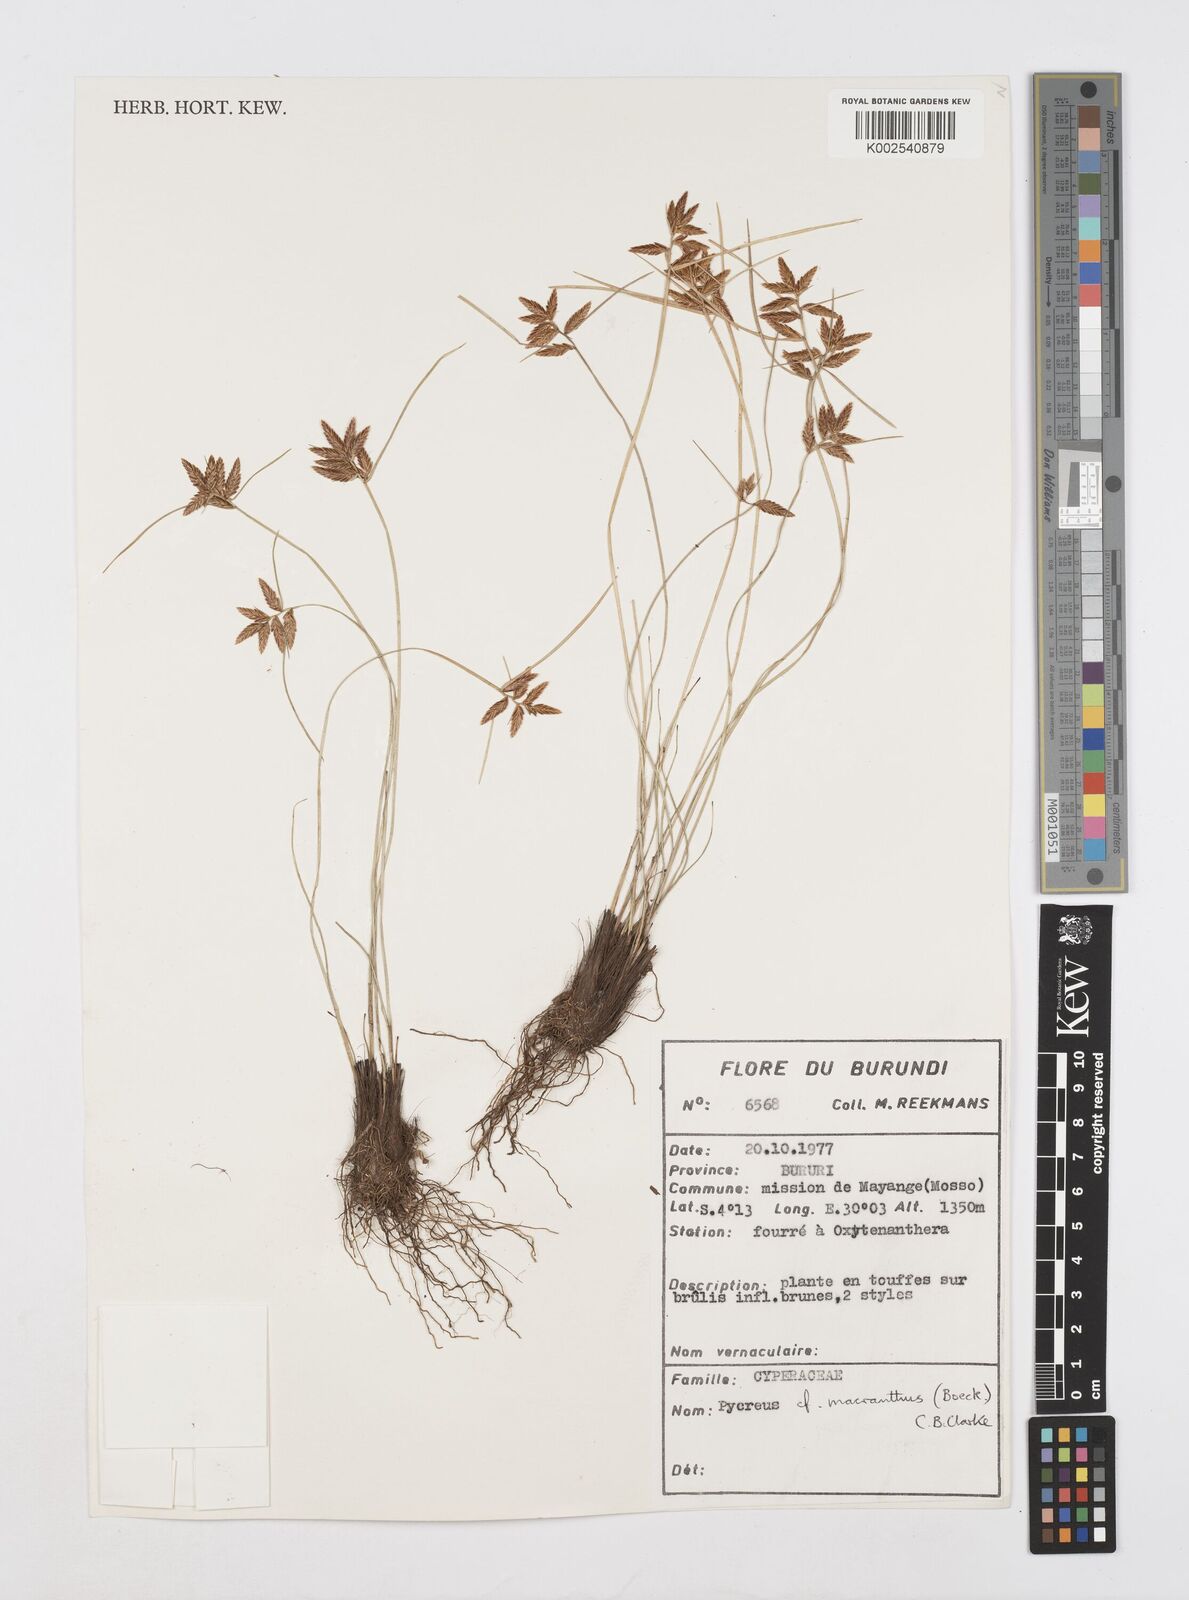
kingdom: Plantae
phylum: Tracheophyta
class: Liliopsida
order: Poales
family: Cyperaceae
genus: Cyperus
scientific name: Cyperus nigricans
